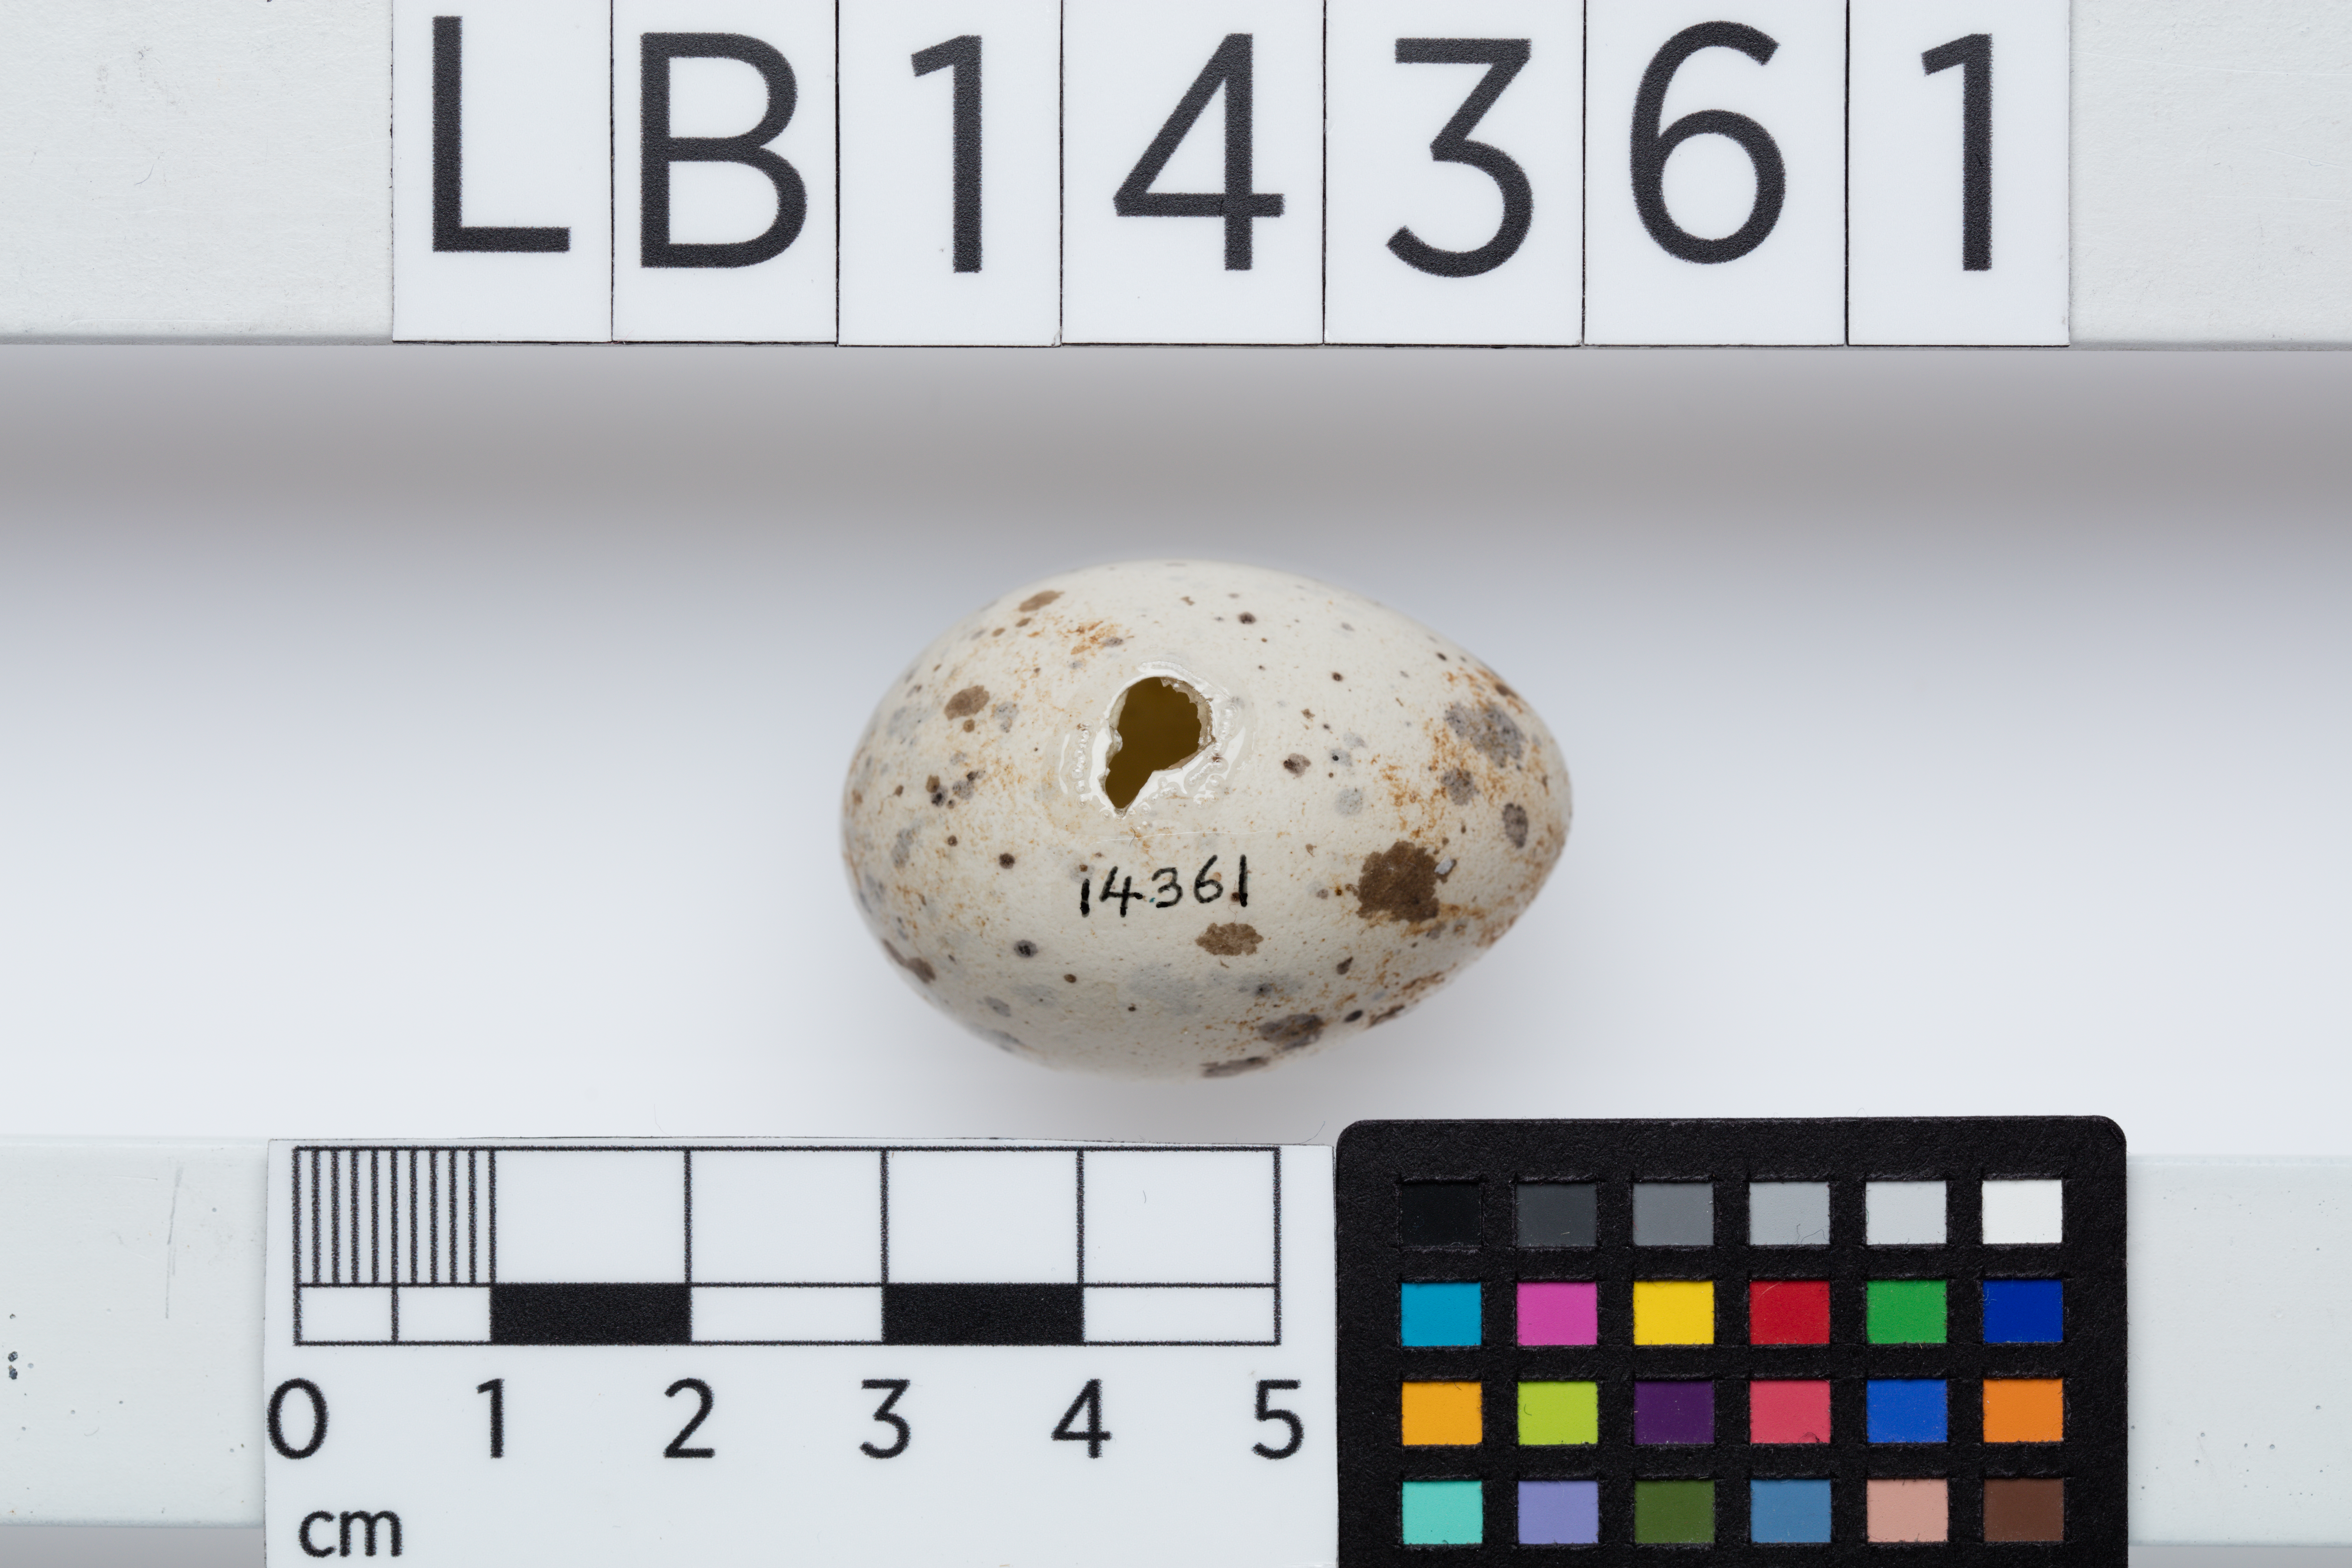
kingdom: Animalia
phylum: Chordata
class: Aves
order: Passeriformes
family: Callaeatidae
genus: Callaeas
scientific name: Callaeas cinereus
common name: South island kokako
